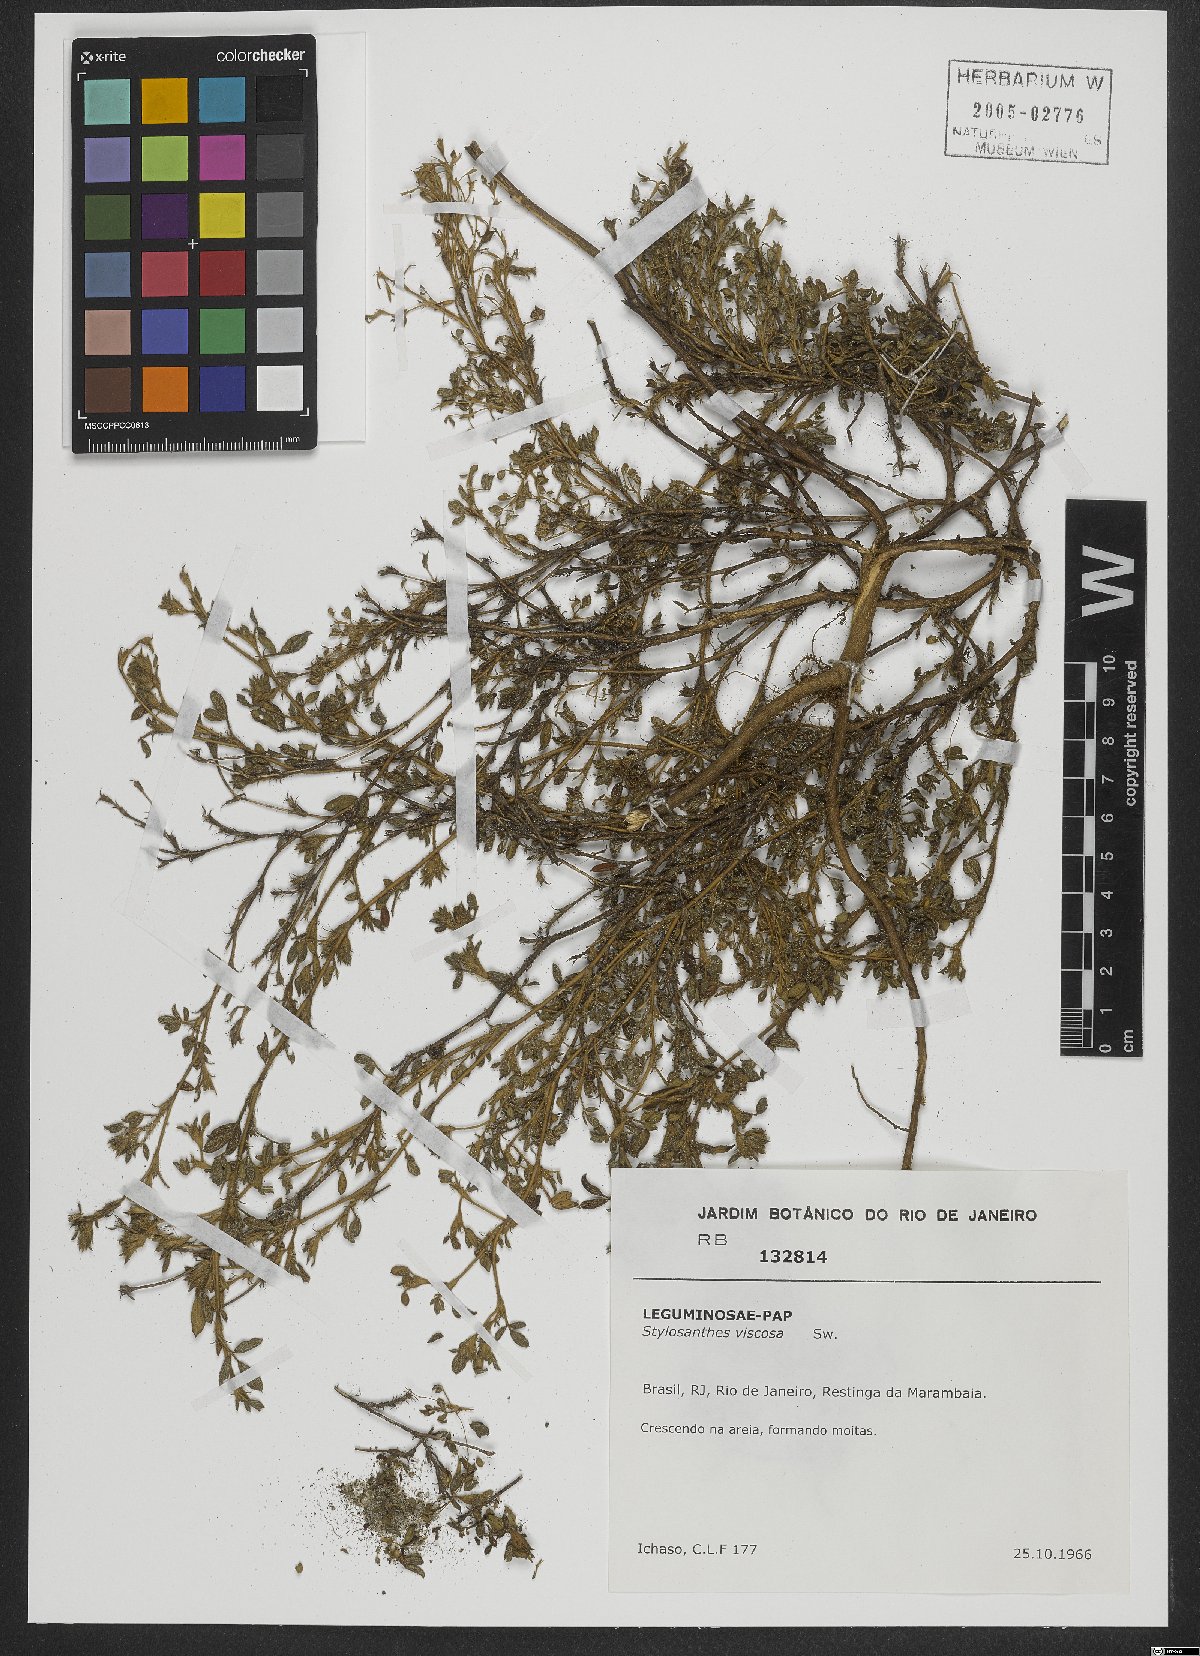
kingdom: Plantae
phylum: Tracheophyta
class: Magnoliopsida
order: Fabales
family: Fabaceae
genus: Stylosanthes
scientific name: Stylosanthes viscosa
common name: Viscid pencil-flower
